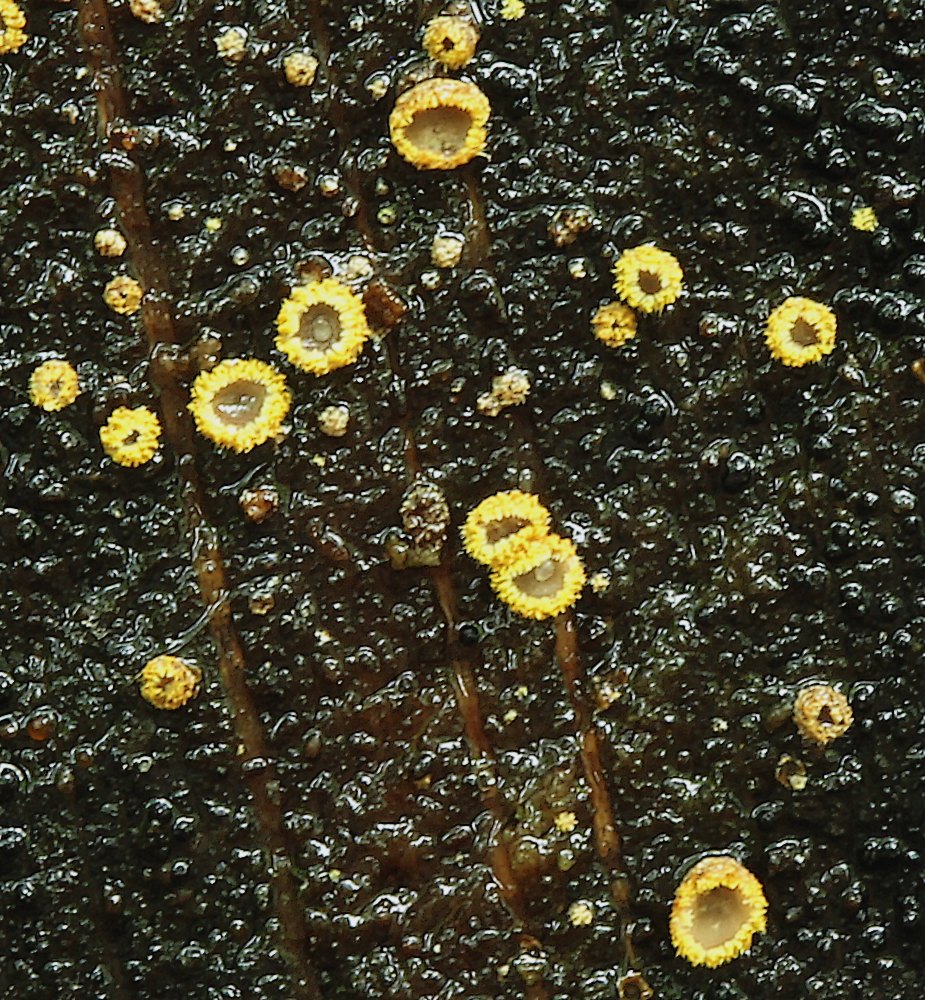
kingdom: Fungi
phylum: Ascomycota
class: Leotiomycetes
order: Helotiales
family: Lachnaceae
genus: Trichopeziza
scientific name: Trichopeziza subsulphurea
